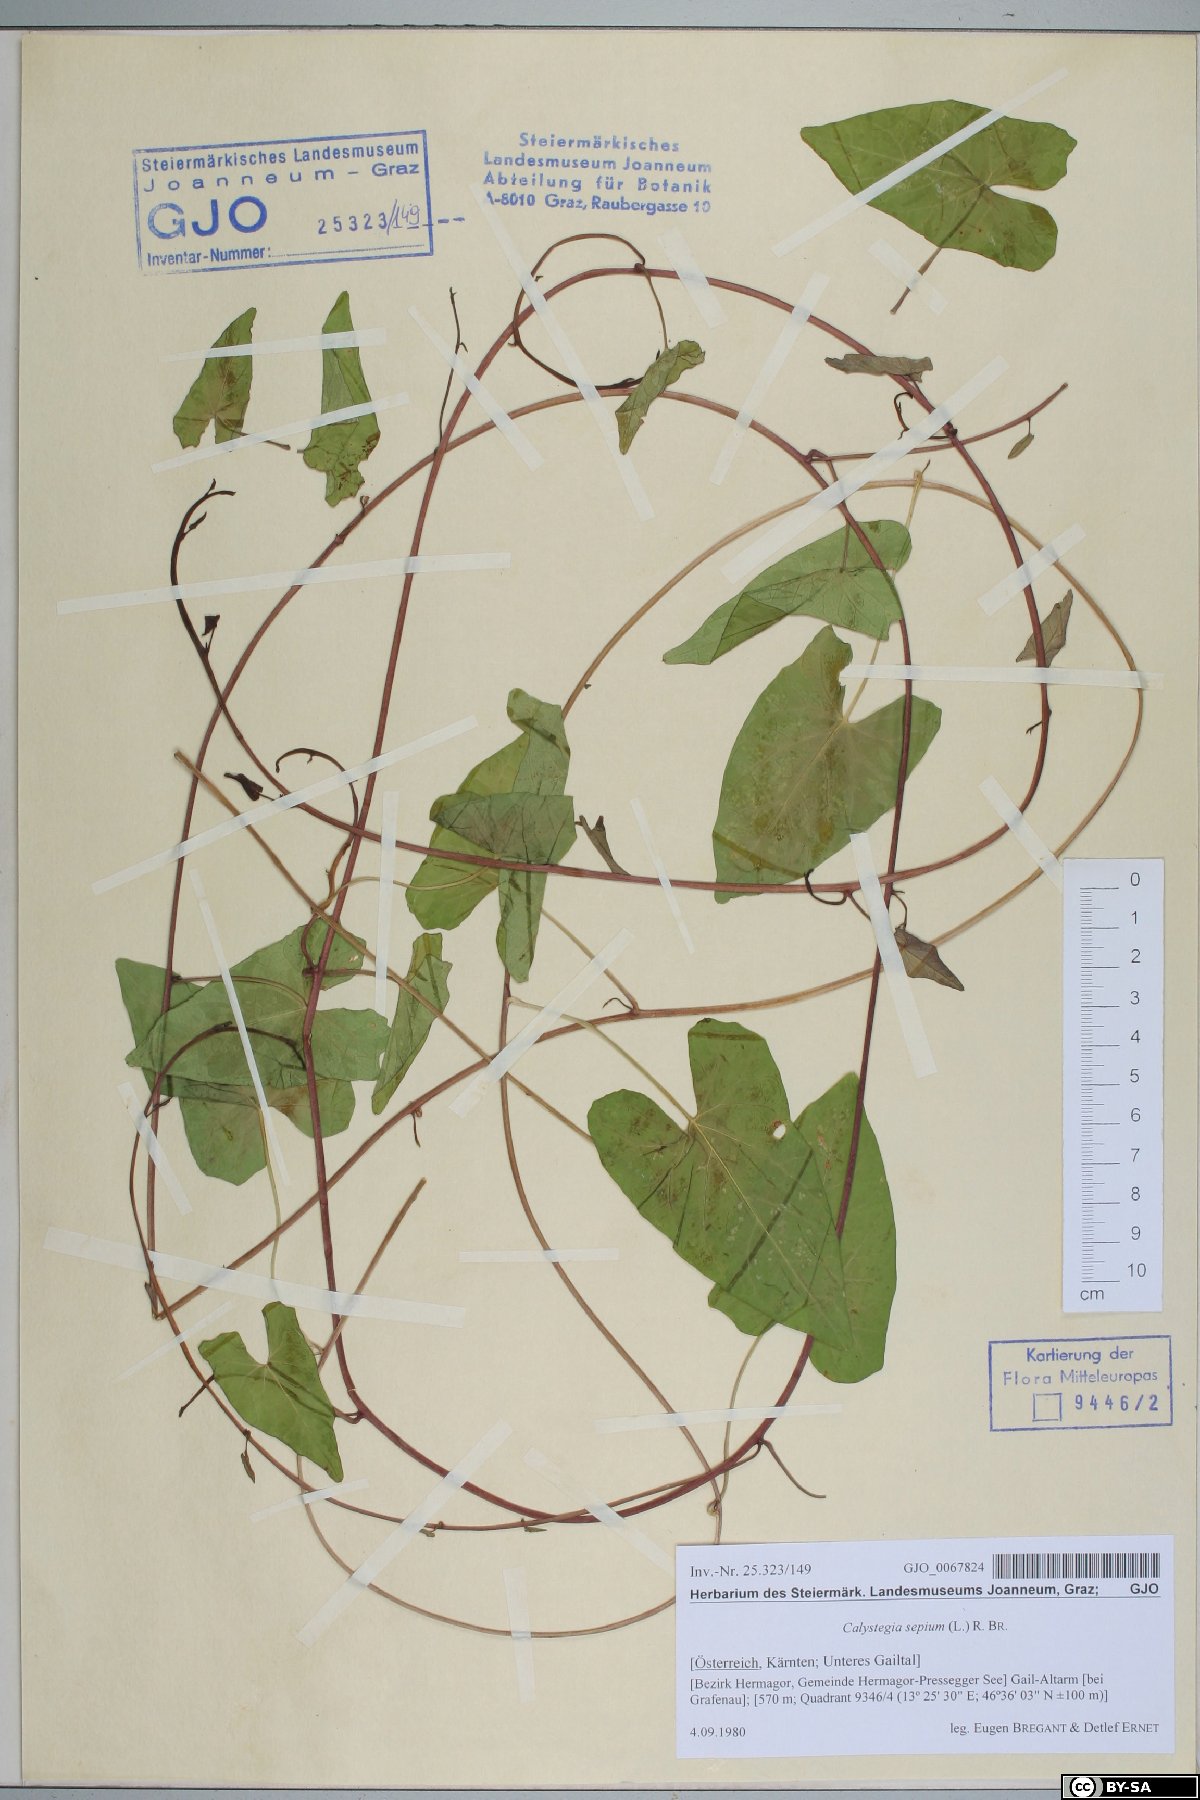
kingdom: Plantae
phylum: Tracheophyta
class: Magnoliopsida
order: Solanales
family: Convolvulaceae
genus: Calystegia
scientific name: Calystegia sepium
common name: Hedge bindweed
